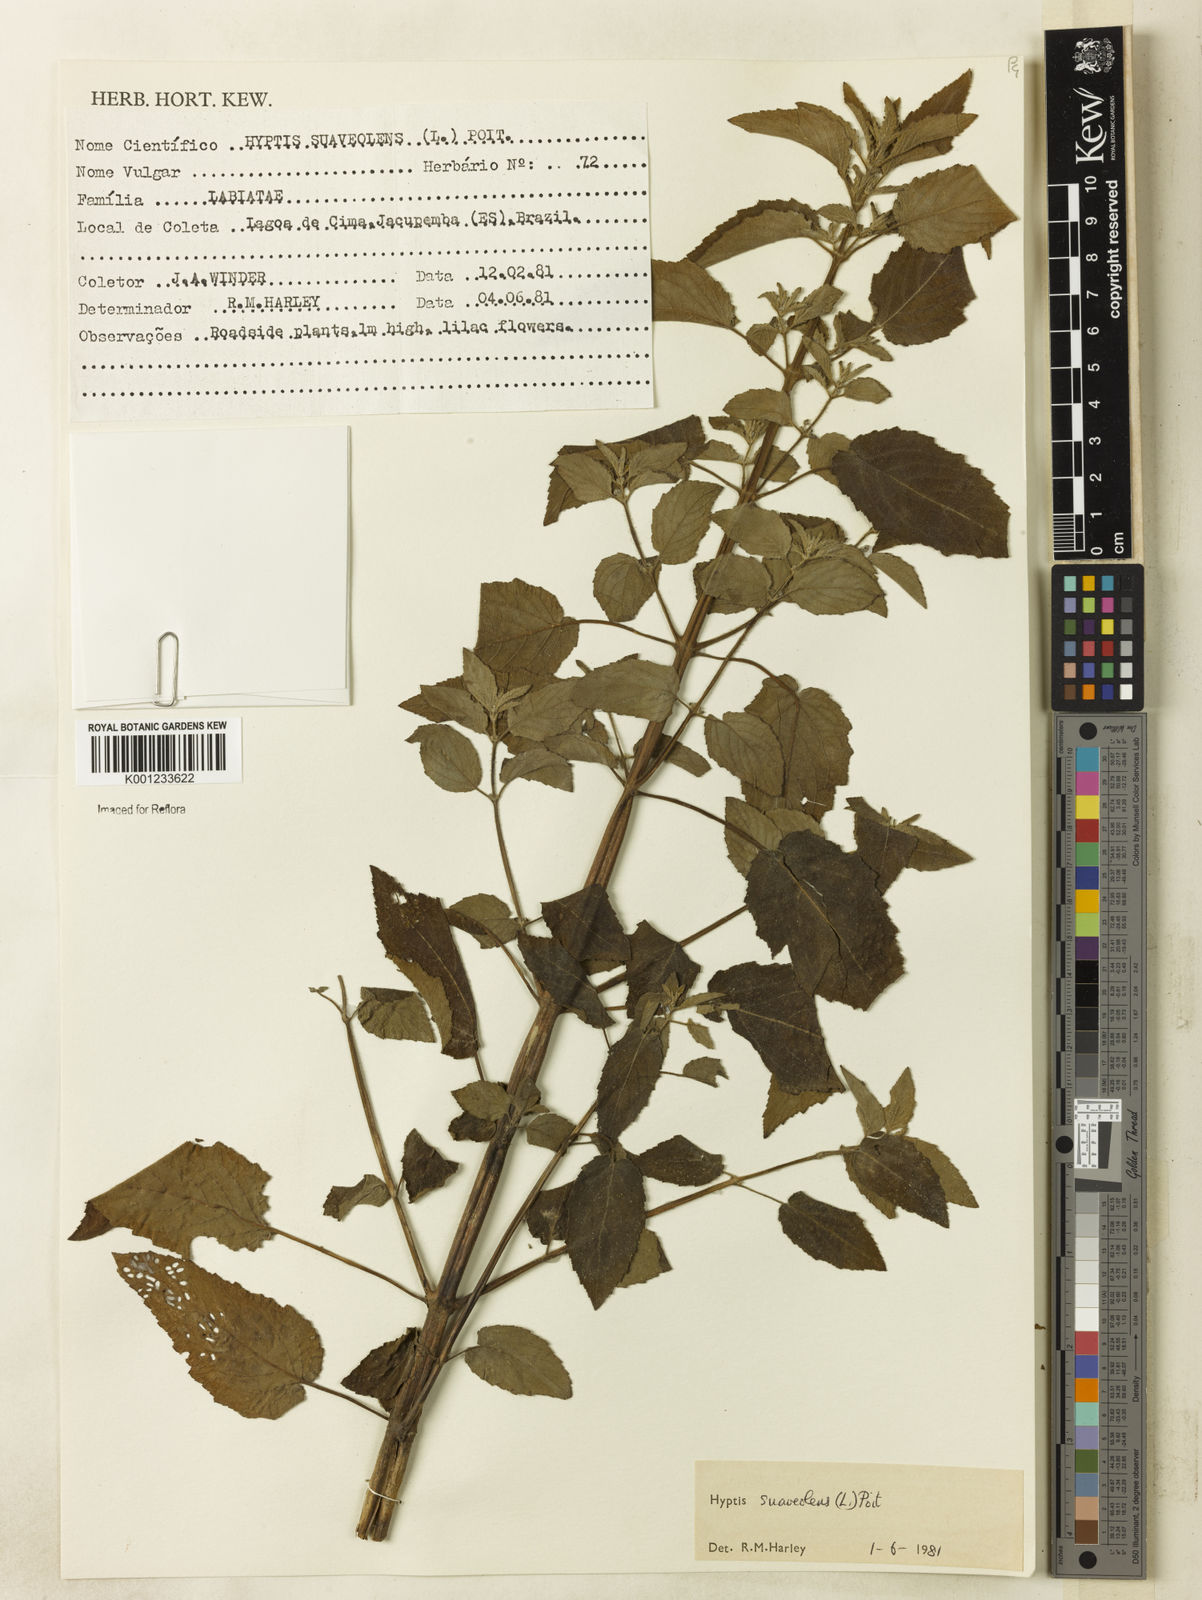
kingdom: Plantae
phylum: Tracheophyta
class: Magnoliopsida
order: Lamiales
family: Lamiaceae
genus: Mesosphaerum
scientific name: Mesosphaerum suaveolens
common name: Pignut
